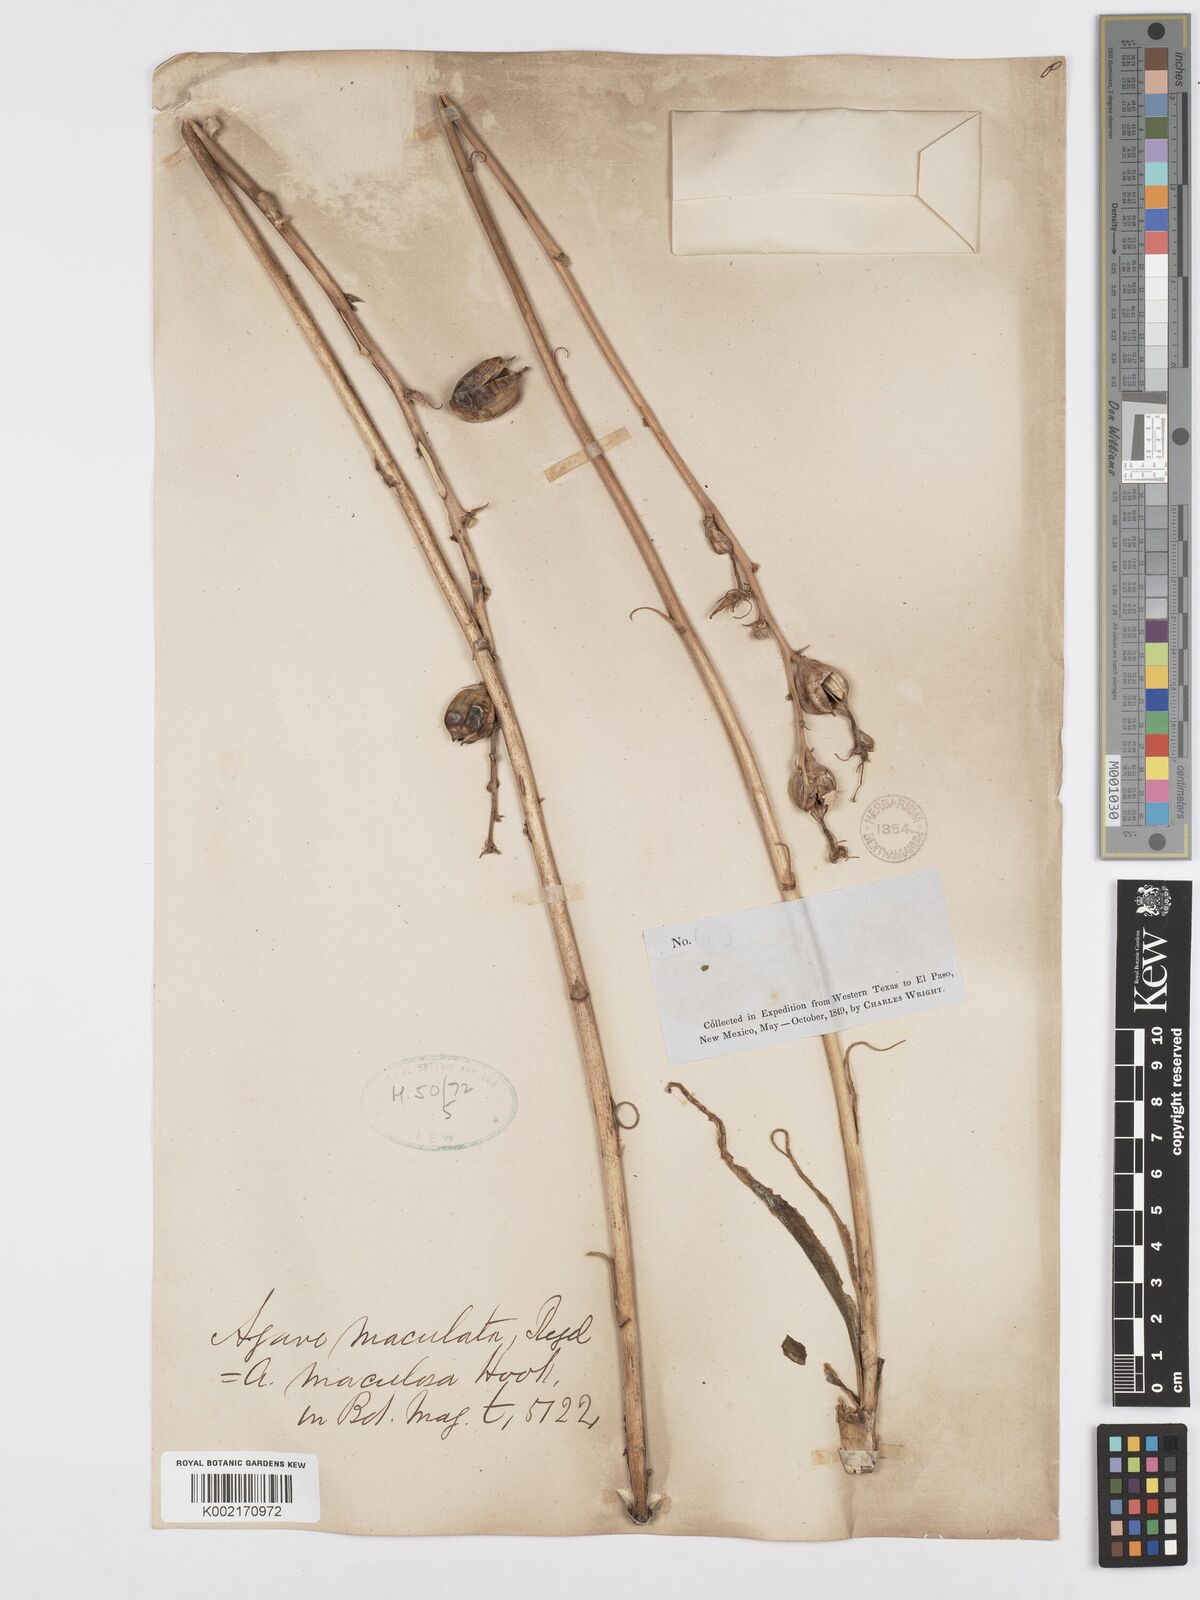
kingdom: Plantae
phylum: Tracheophyta
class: Liliopsida
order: Asparagales
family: Asparagaceae
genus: Agave
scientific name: Agave stictata
